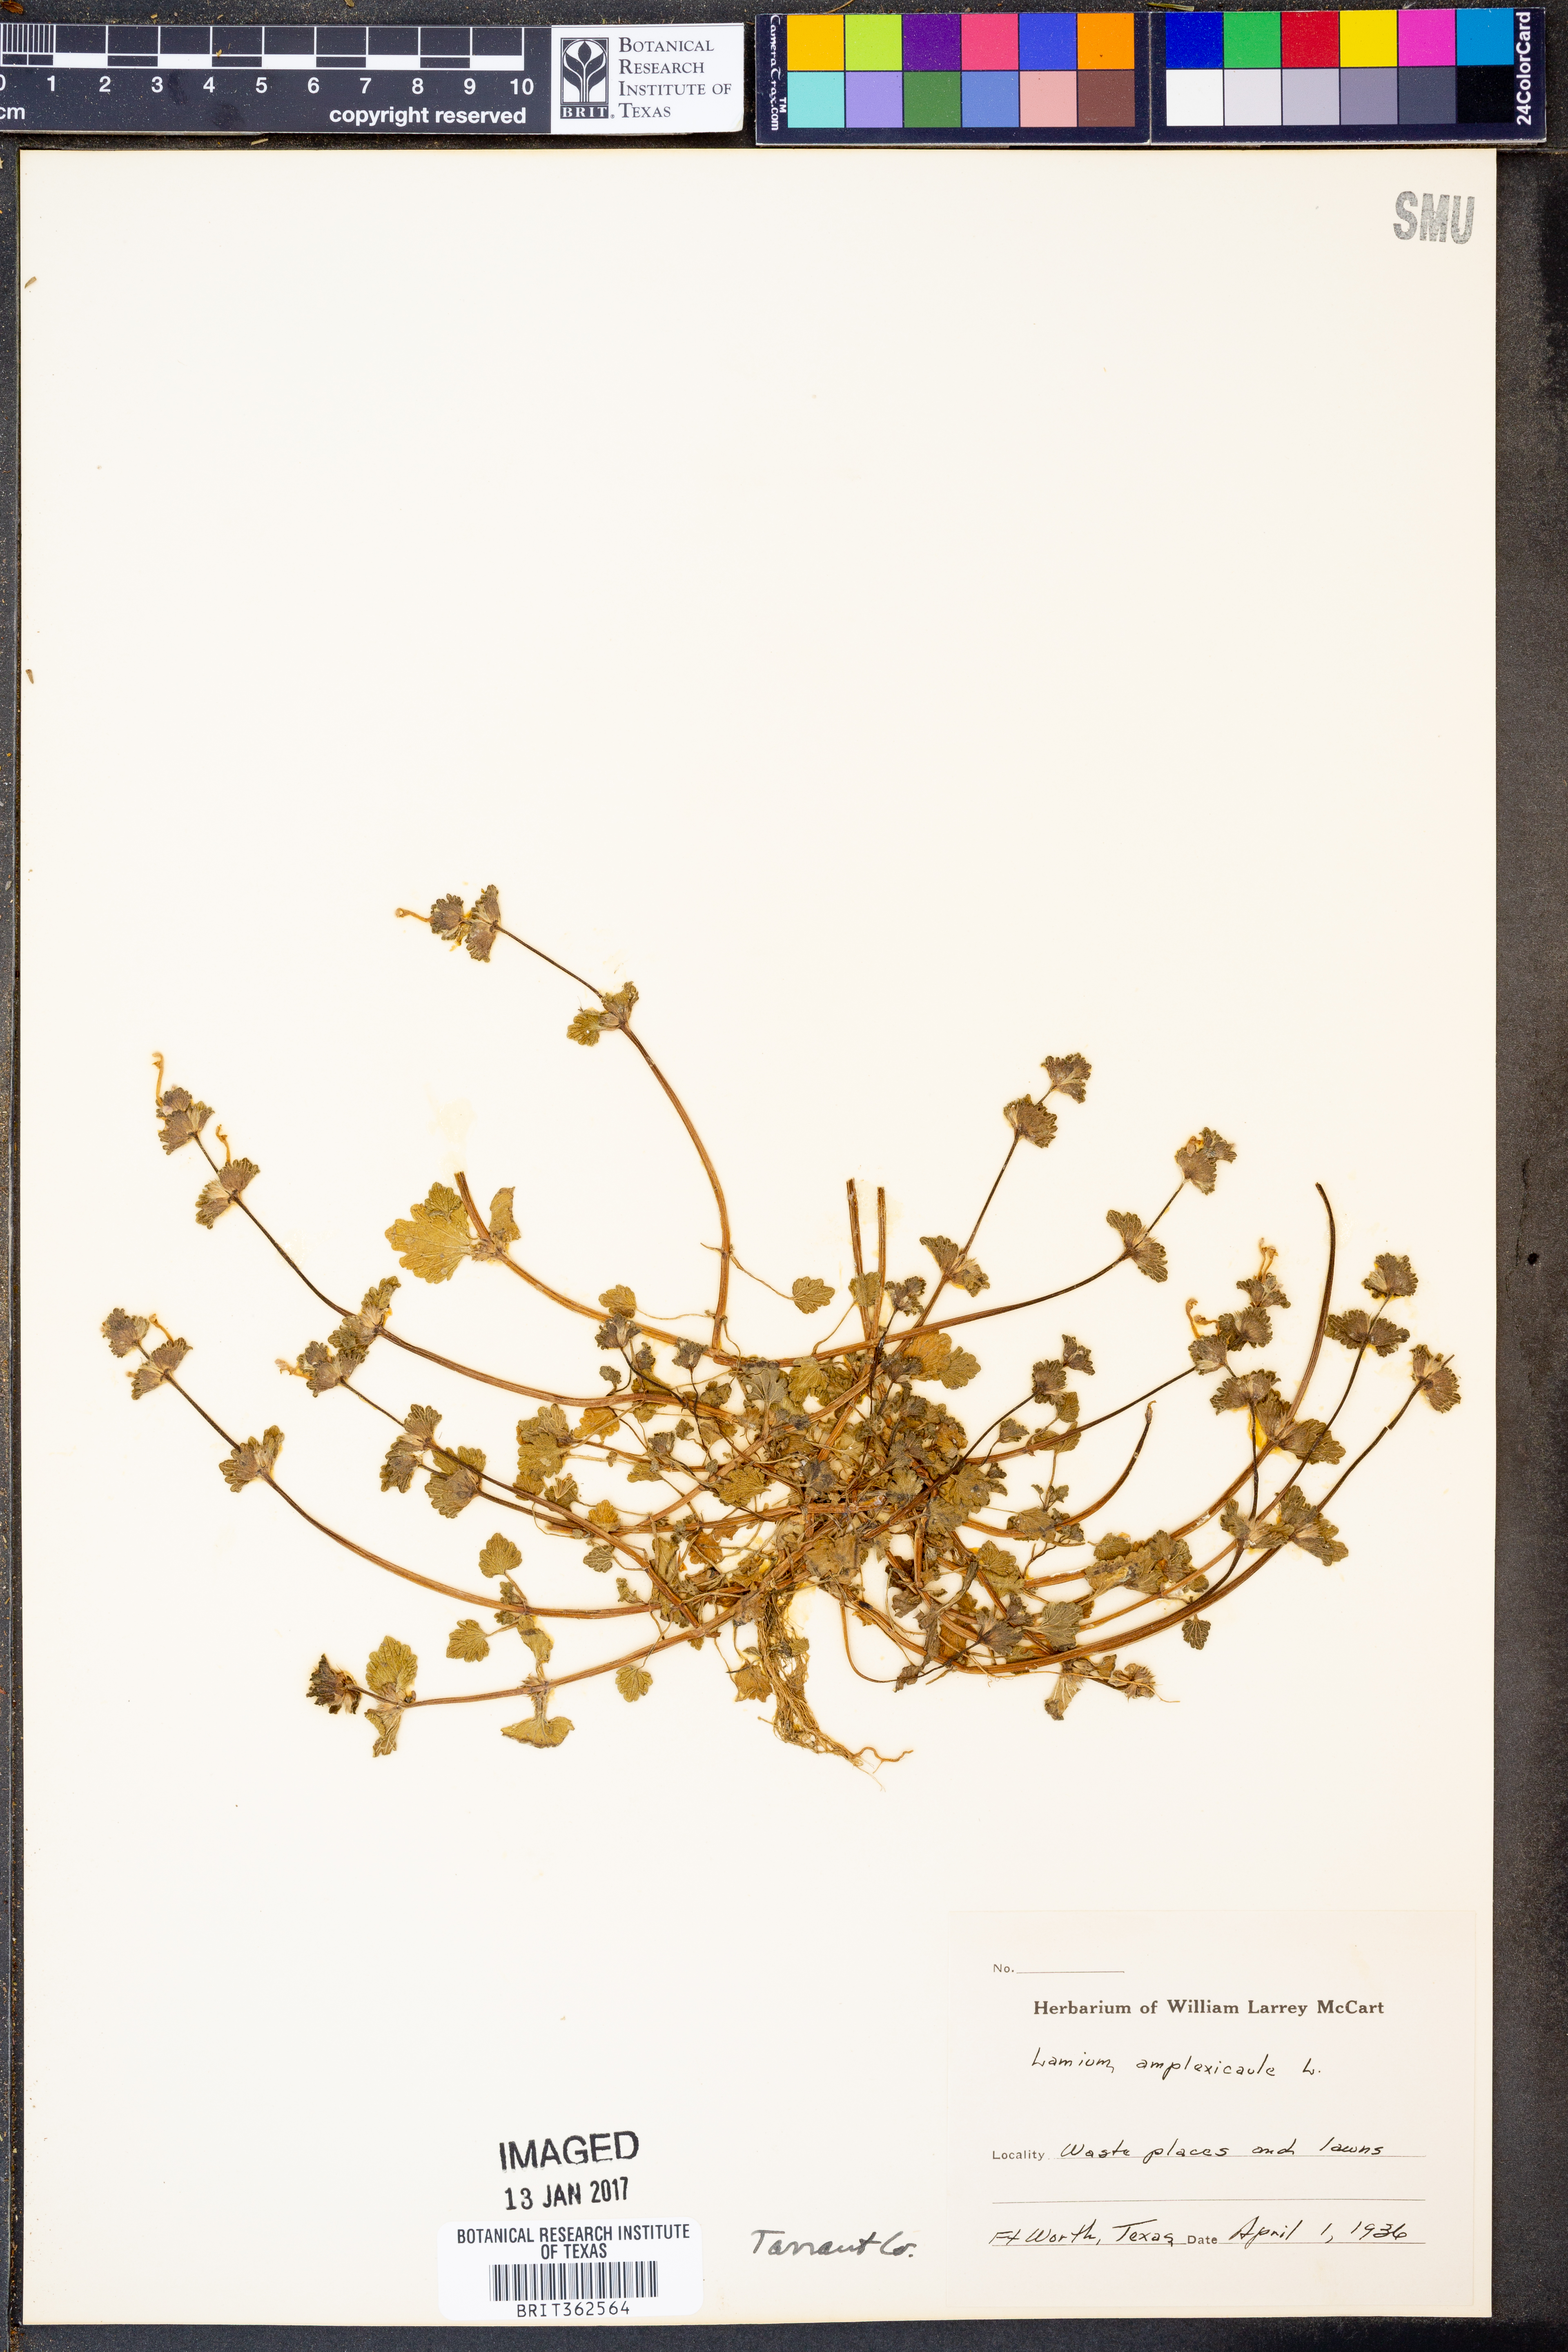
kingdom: Plantae
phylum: Tracheophyta
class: Magnoliopsida
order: Lamiales
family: Lamiaceae
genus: Lamium
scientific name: Lamium amplexicaule
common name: Henbit dead-nettle
